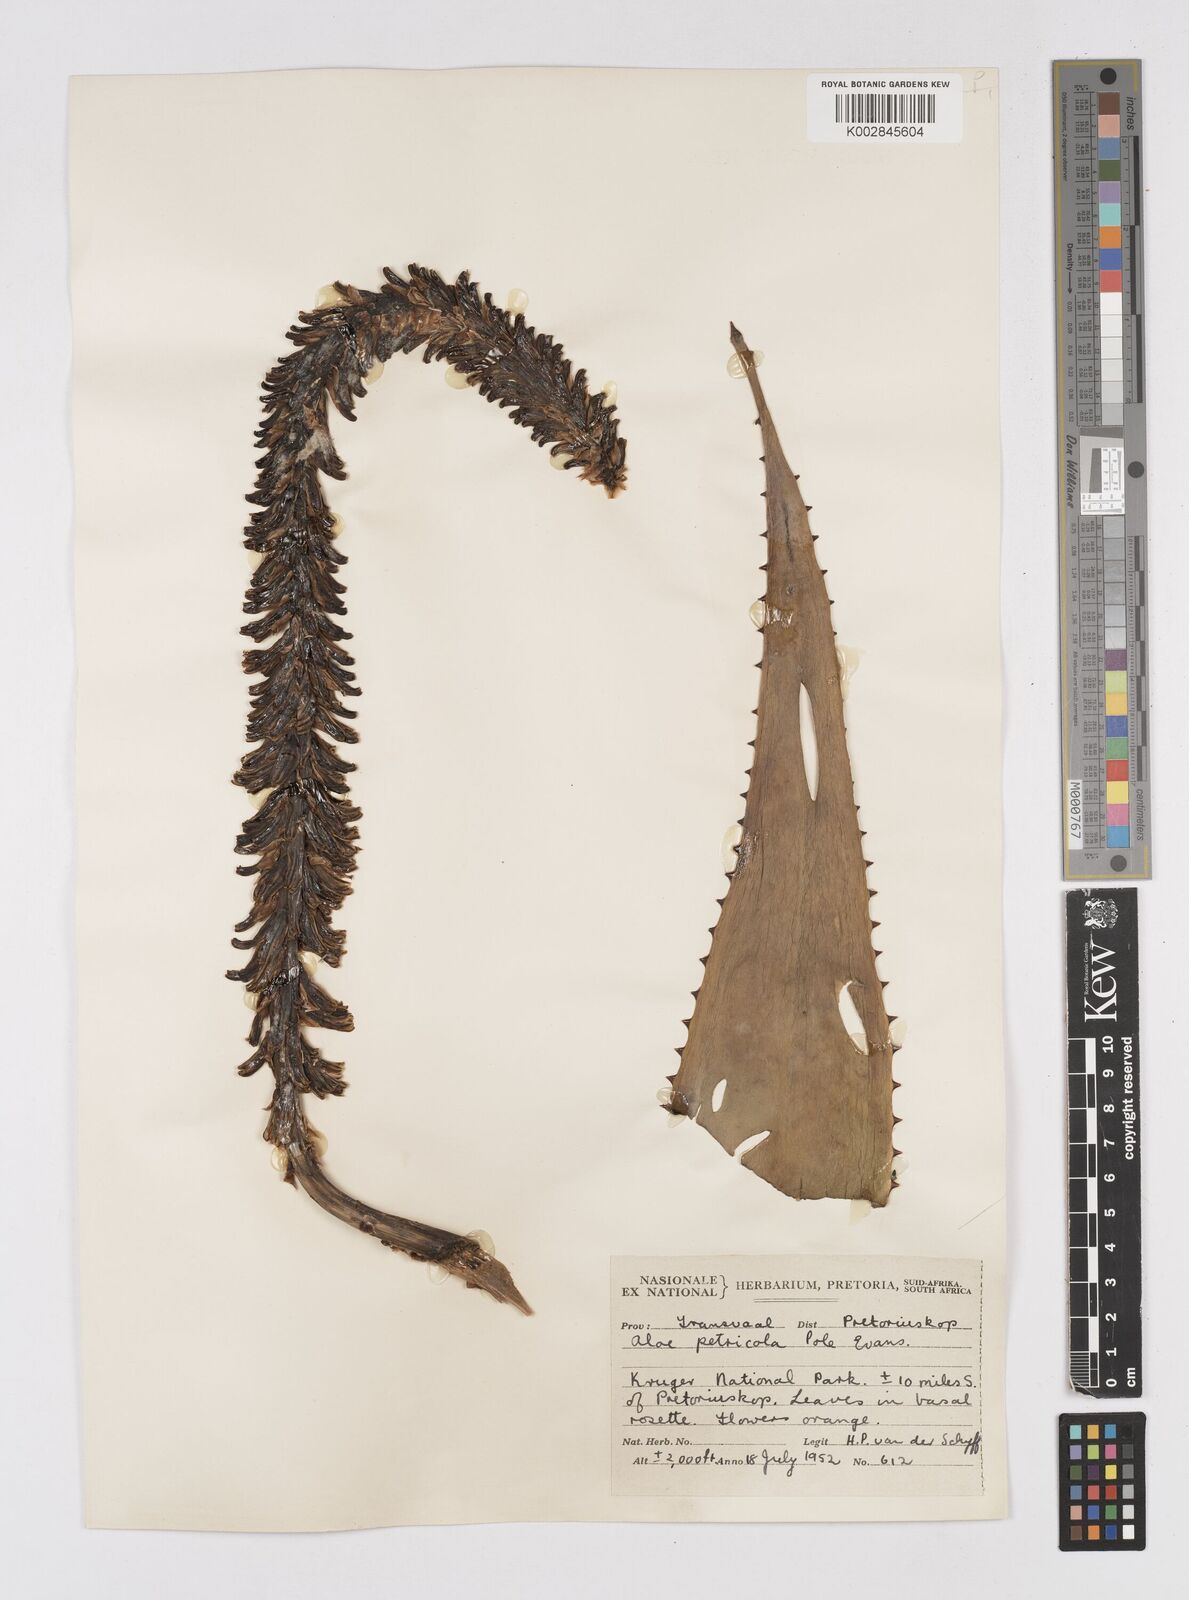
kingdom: Plantae
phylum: Tracheophyta
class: Liliopsida
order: Asparagales
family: Asphodelaceae
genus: Aloe
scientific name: Aloe
